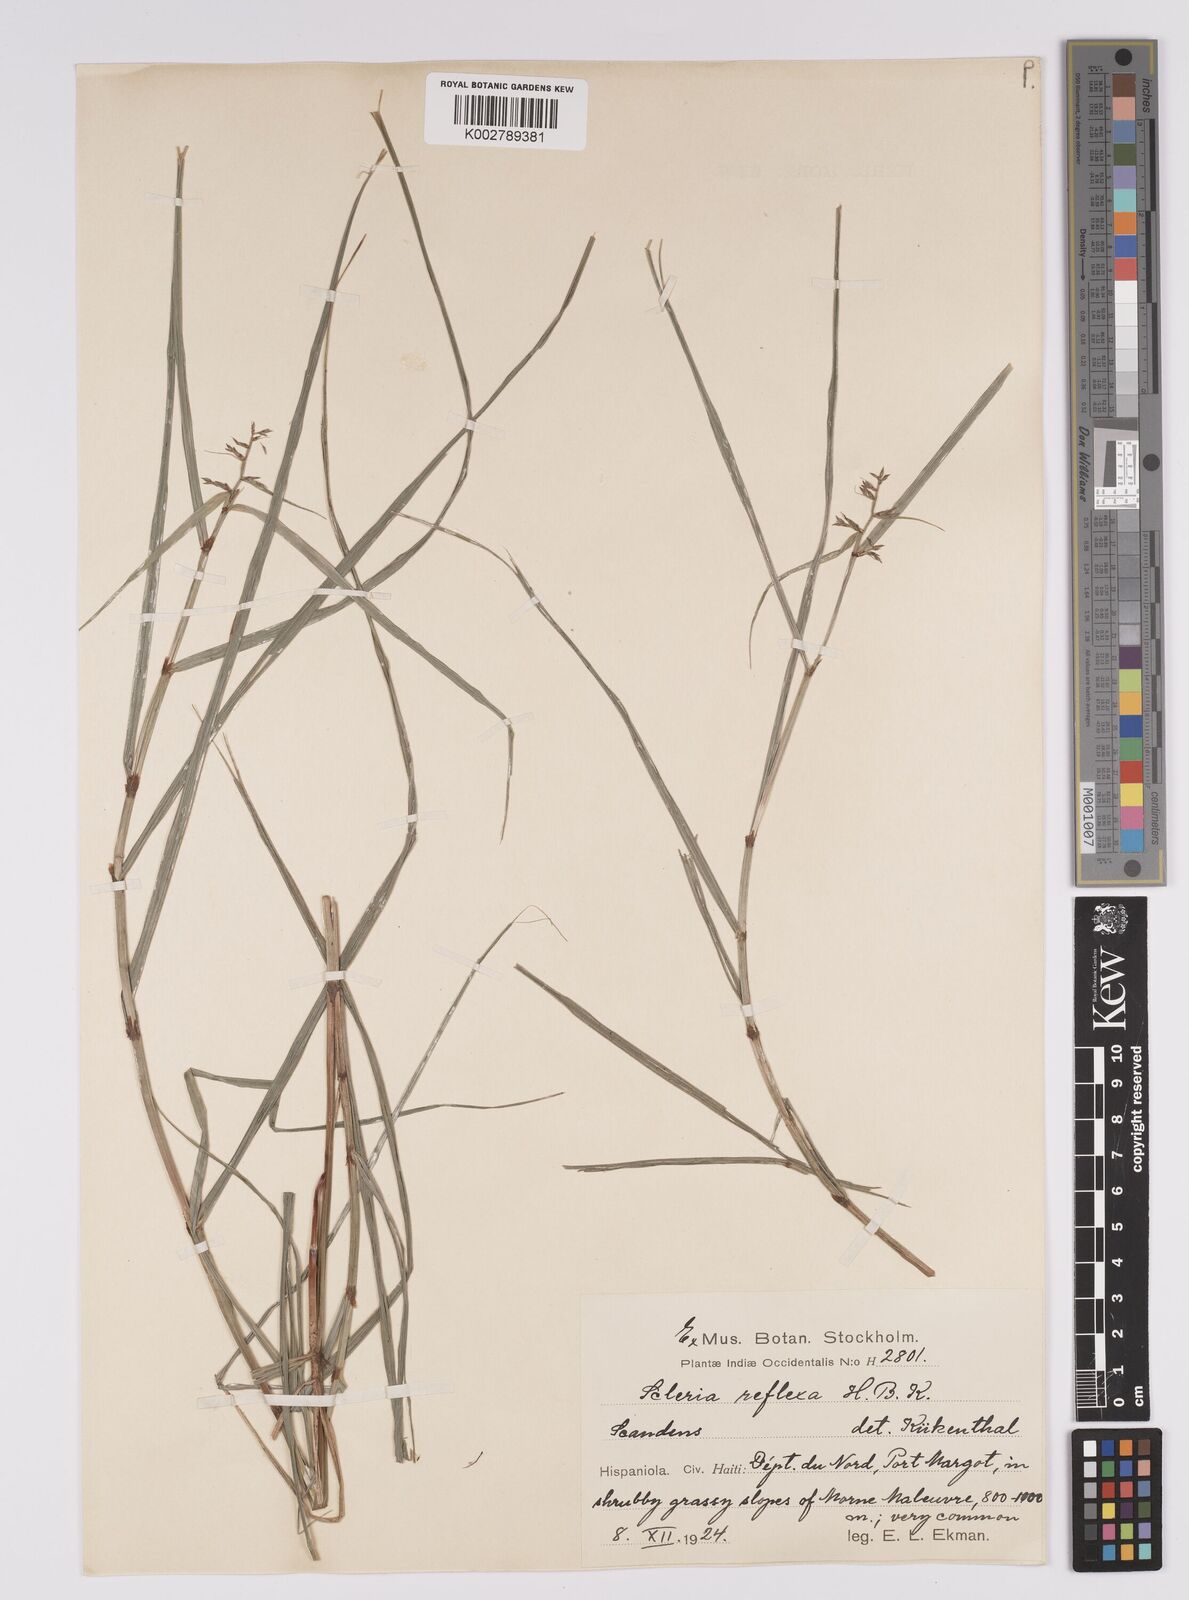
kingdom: Plantae
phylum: Tracheophyta
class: Liliopsida
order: Poales
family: Cyperaceae
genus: Scleria
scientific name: Scleria secans
